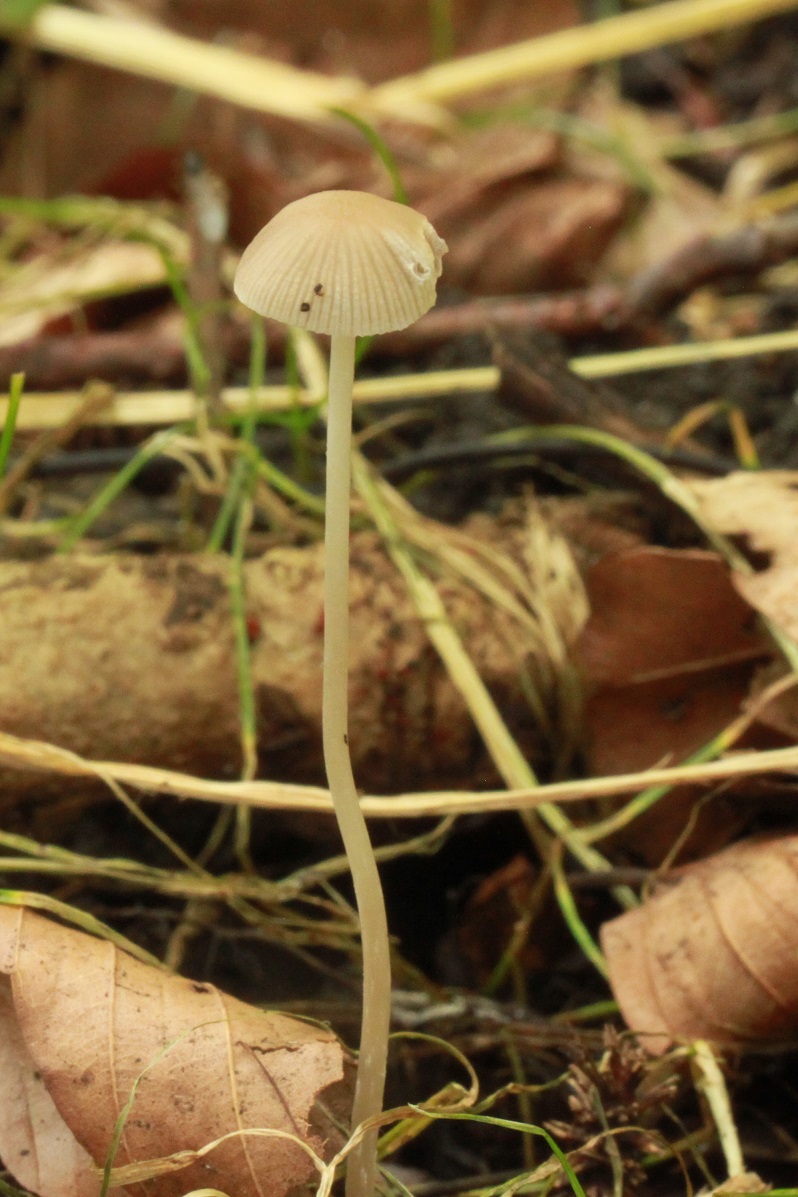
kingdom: Fungi
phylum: Basidiomycota
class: Agaricomycetes
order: Agaricales
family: Psathyrellaceae
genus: Psathyrella
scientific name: Psathyrella pseudogracilis
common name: slank mørkhat
